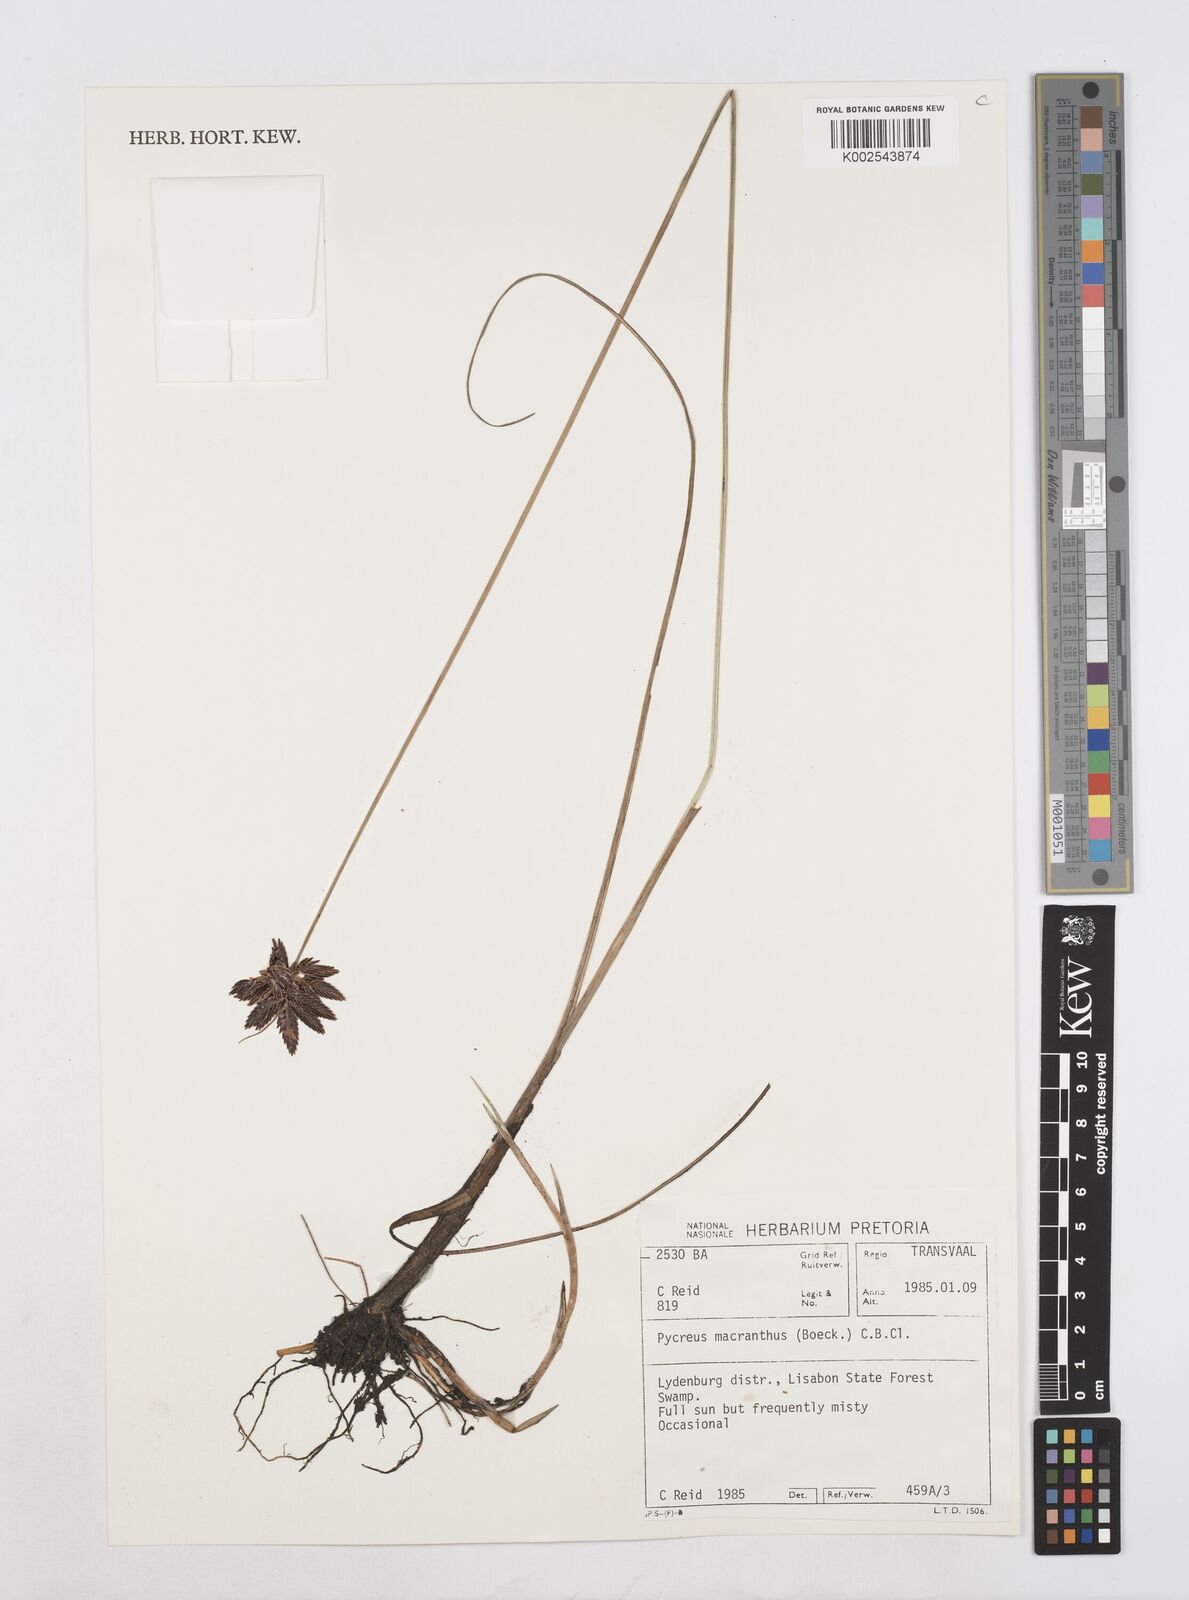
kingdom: Plantae
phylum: Tracheophyta
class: Liliopsida
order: Poales
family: Cyperaceae
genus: Cyperus
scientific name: Cyperus nigricans
